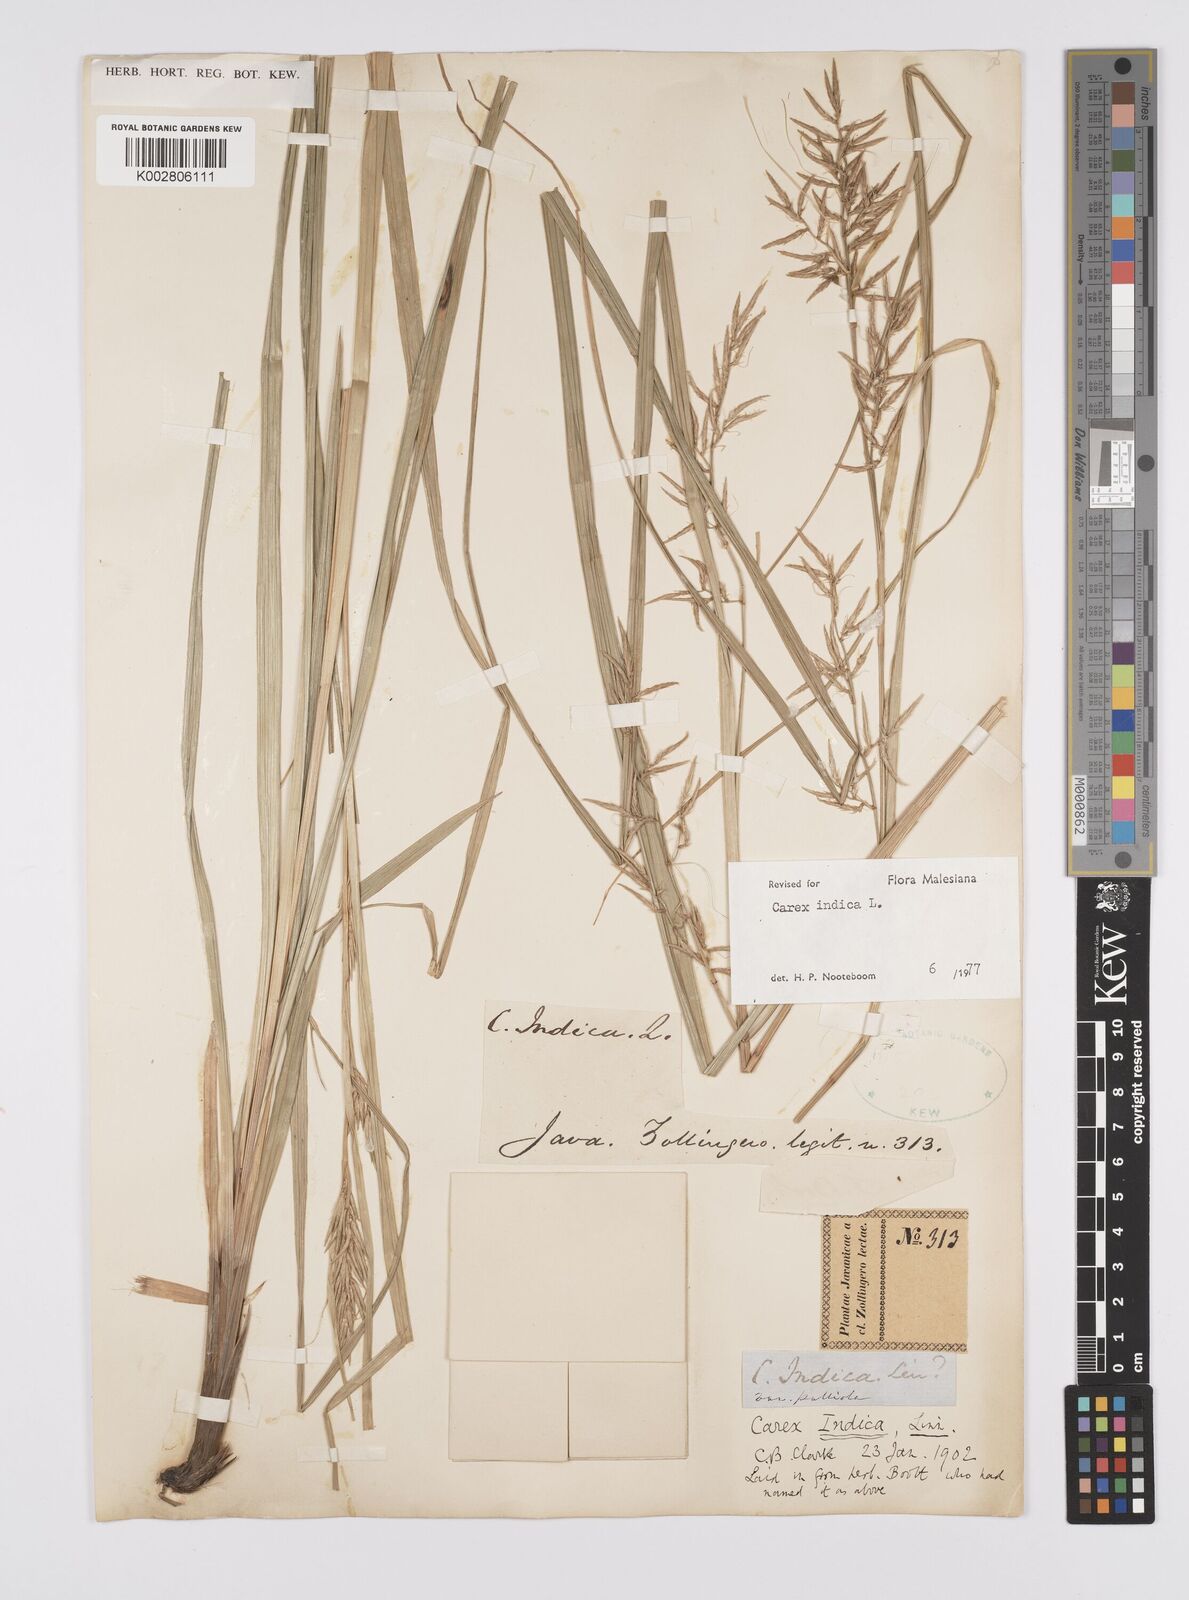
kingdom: Plantae
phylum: Tracheophyta
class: Liliopsida
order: Poales
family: Cyperaceae
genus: Carex
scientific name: Carex indica
